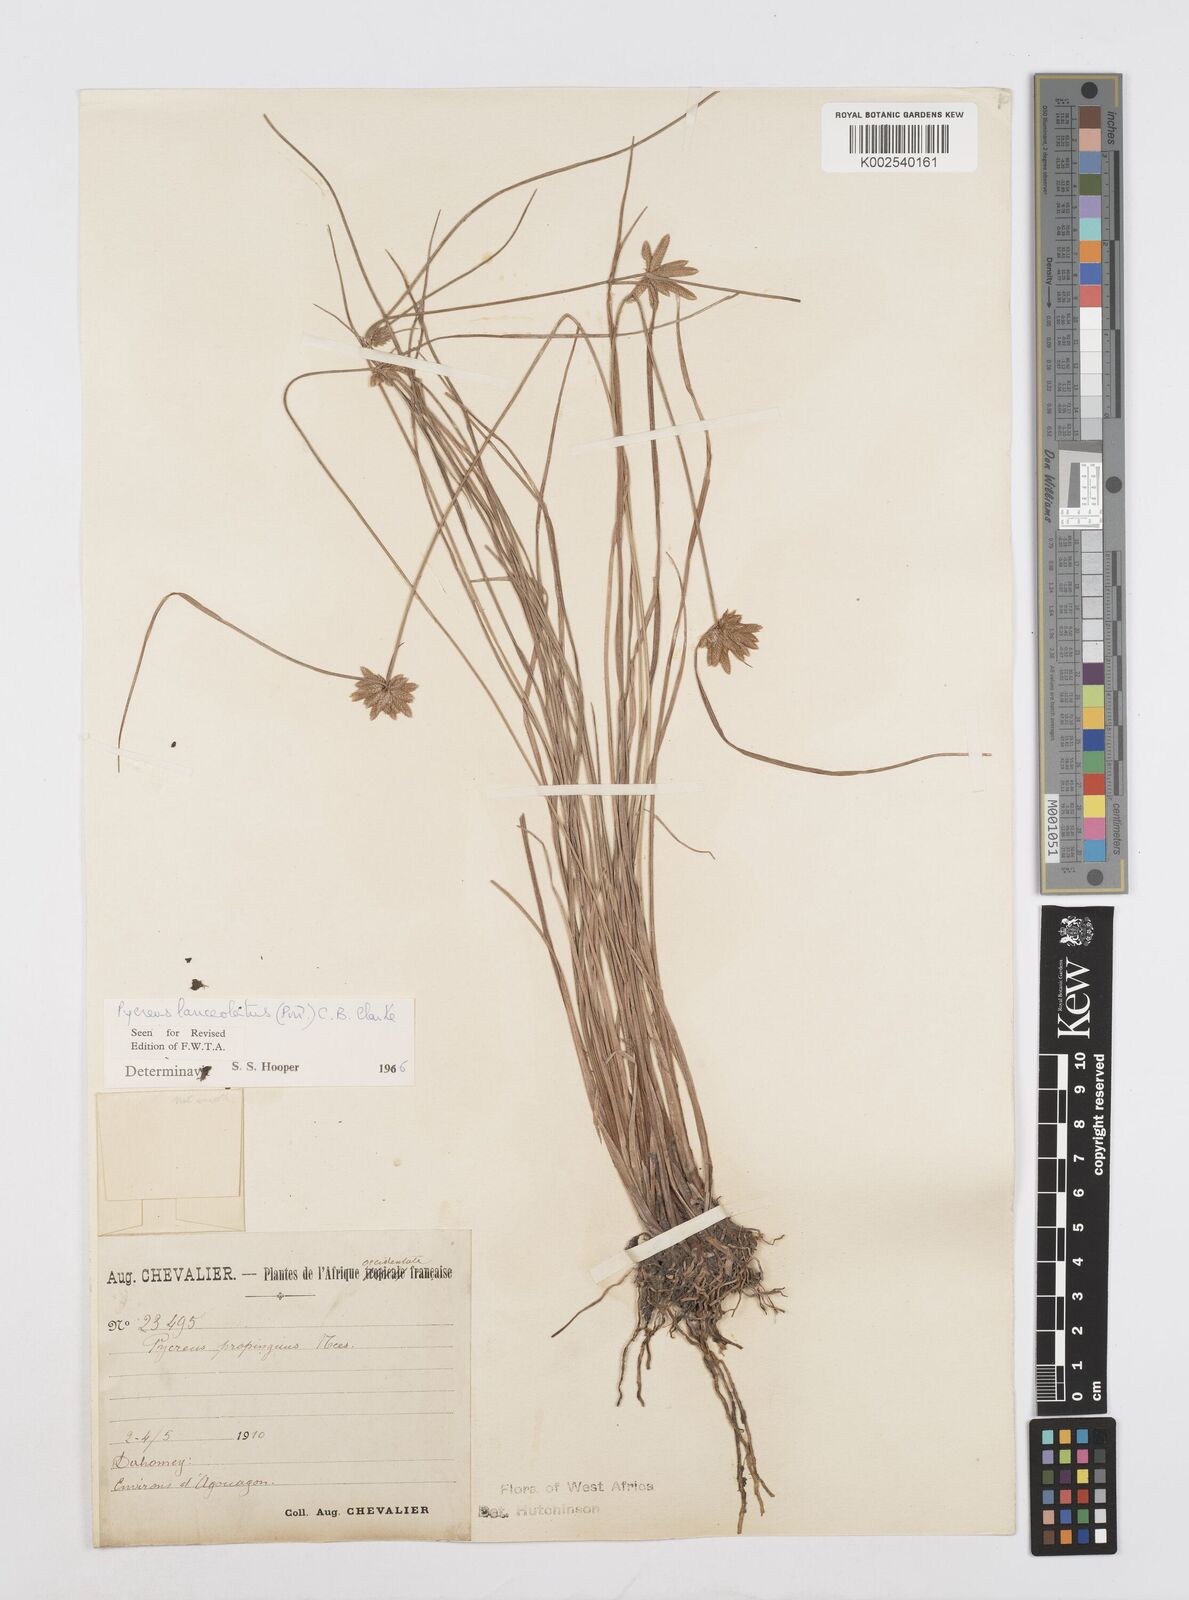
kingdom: Plantae
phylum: Tracheophyta
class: Liliopsida
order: Poales
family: Cyperaceae
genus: Cyperus
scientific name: Cyperus
